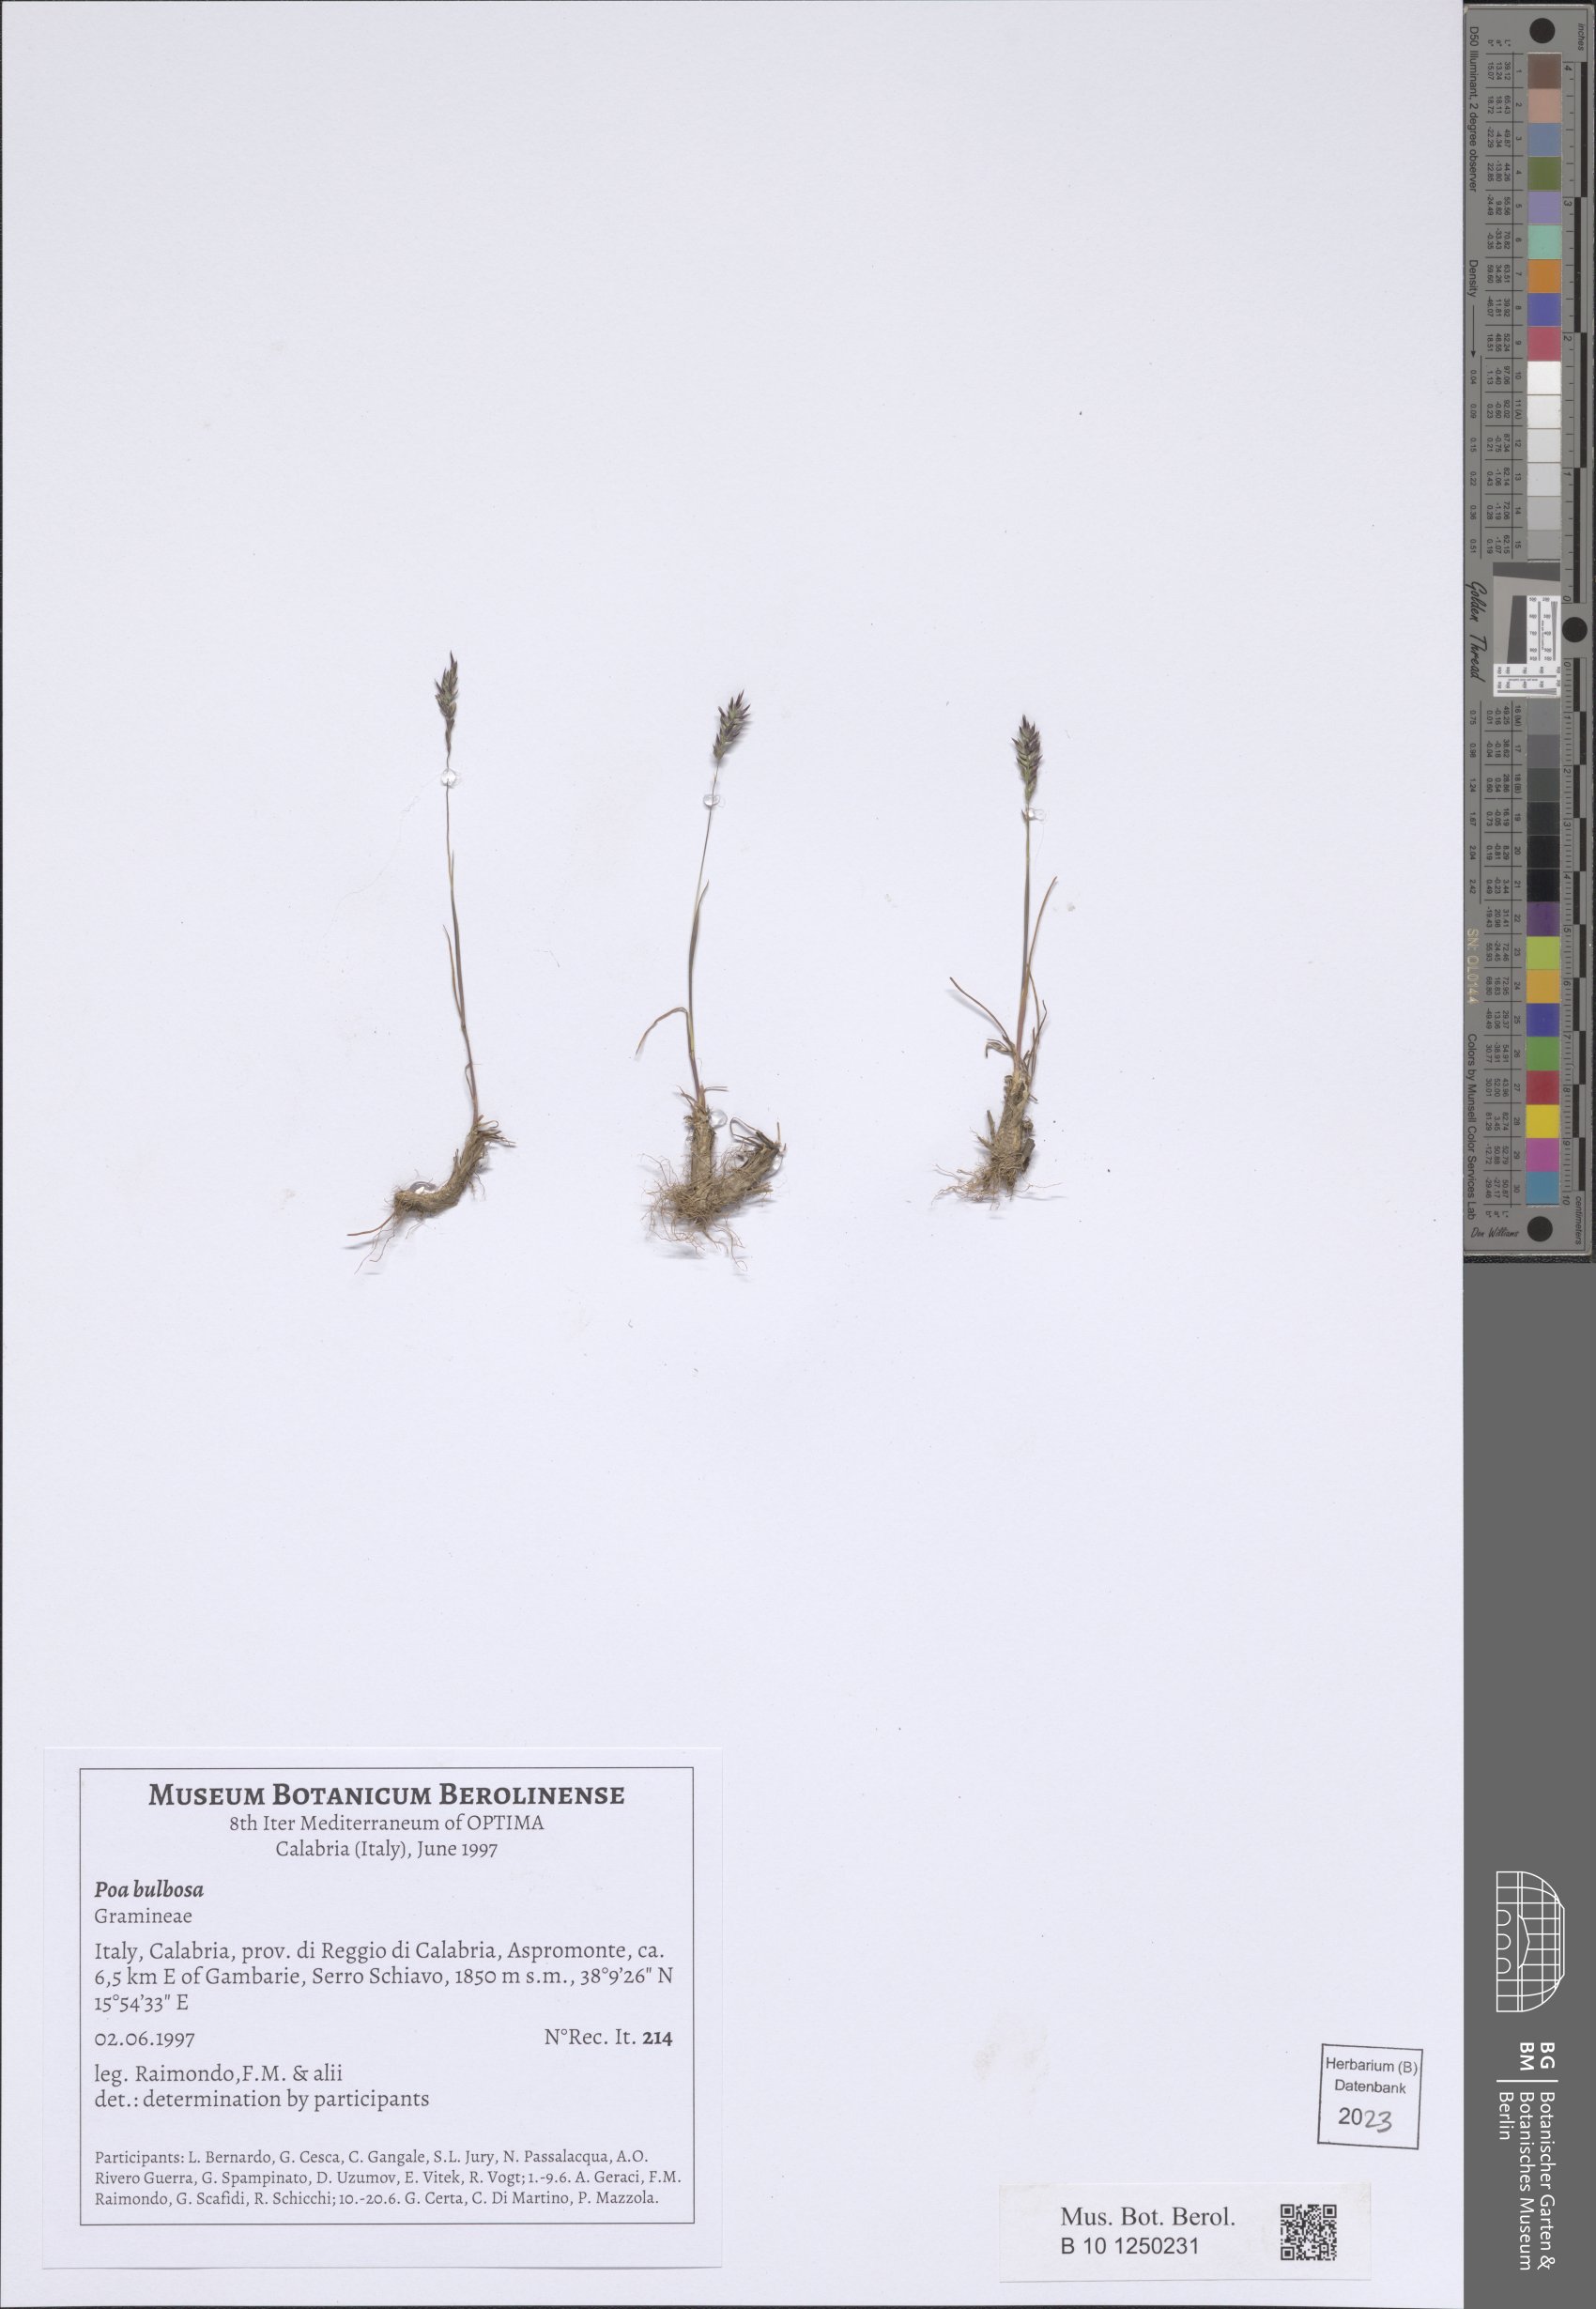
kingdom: Plantae
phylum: Tracheophyta
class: Liliopsida
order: Poales
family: Poaceae
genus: Poa
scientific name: Poa bulbosa
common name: Bulbous bluegrass
